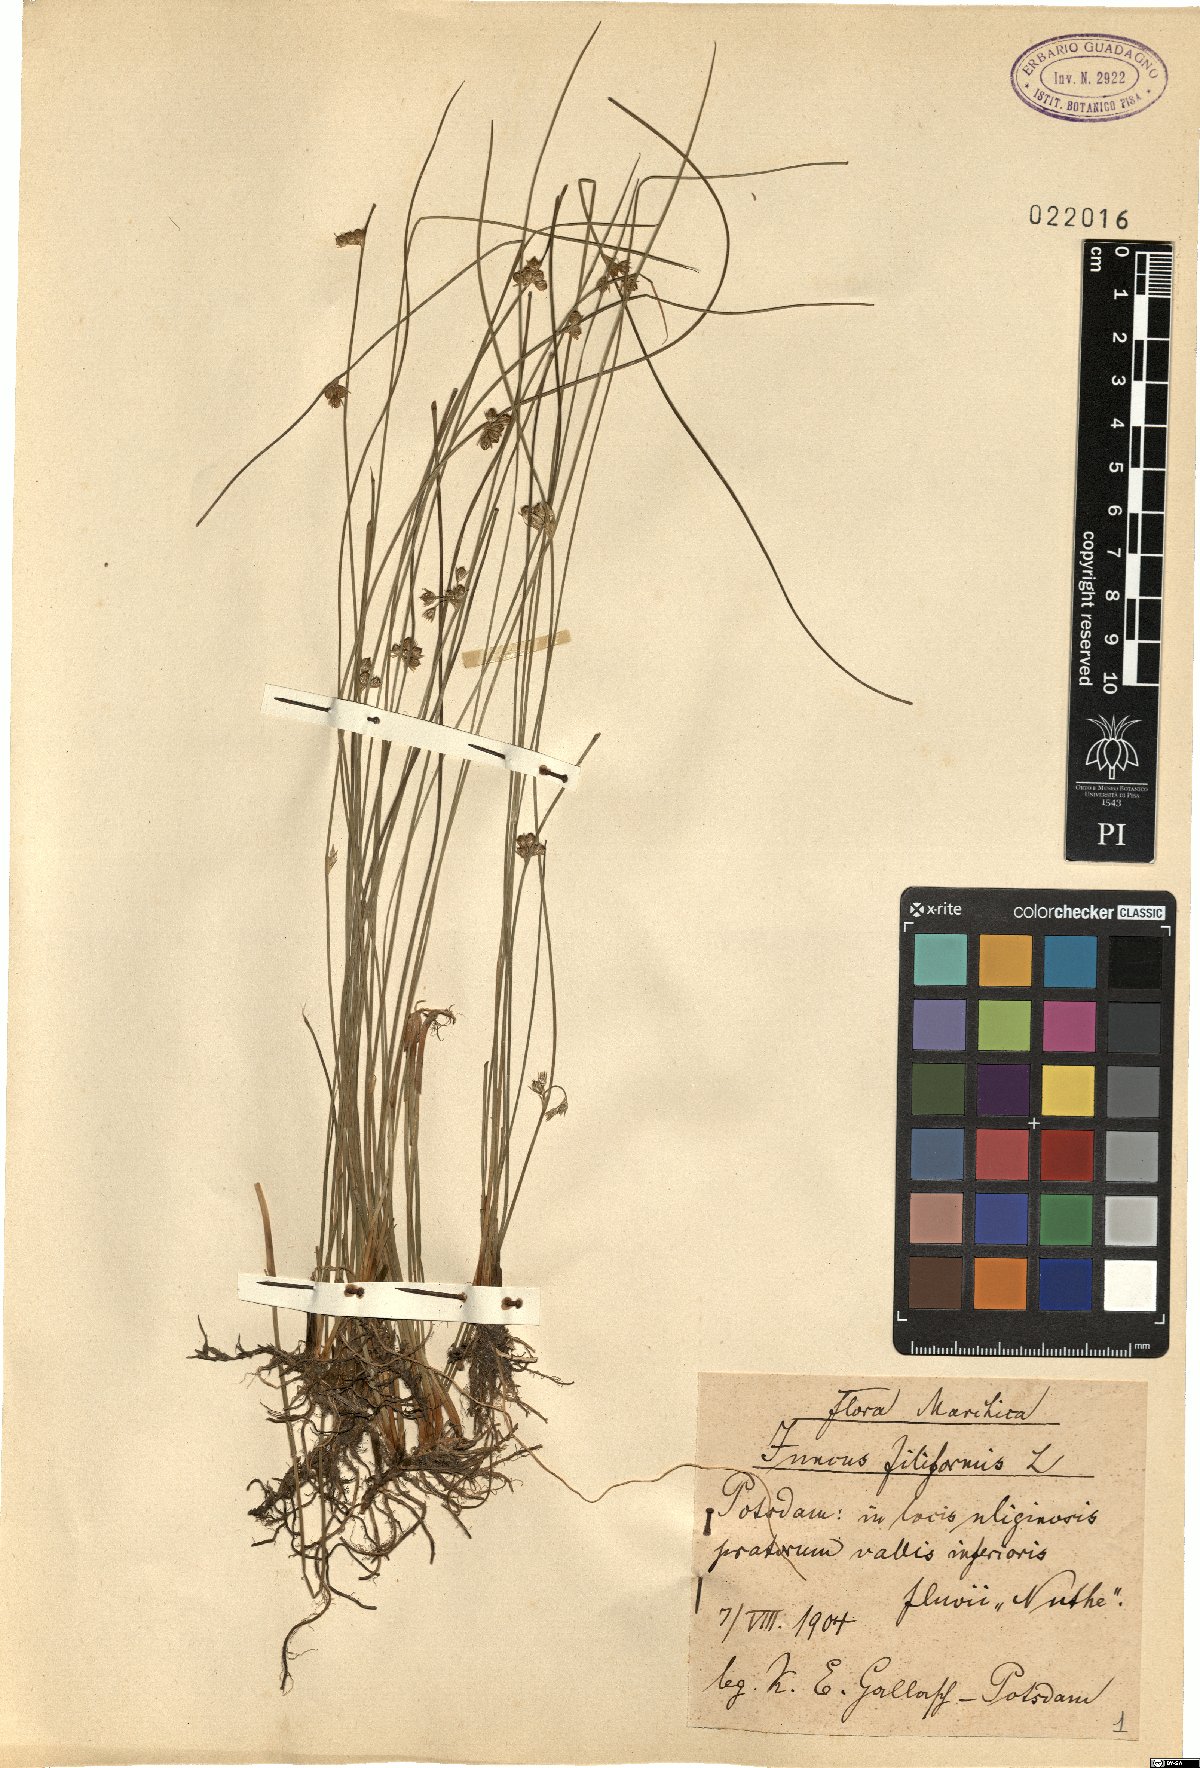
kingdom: Plantae
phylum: Tracheophyta
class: Liliopsida
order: Poales
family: Juncaceae
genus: Juncus
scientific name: Juncus filiformis
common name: Thread rush
